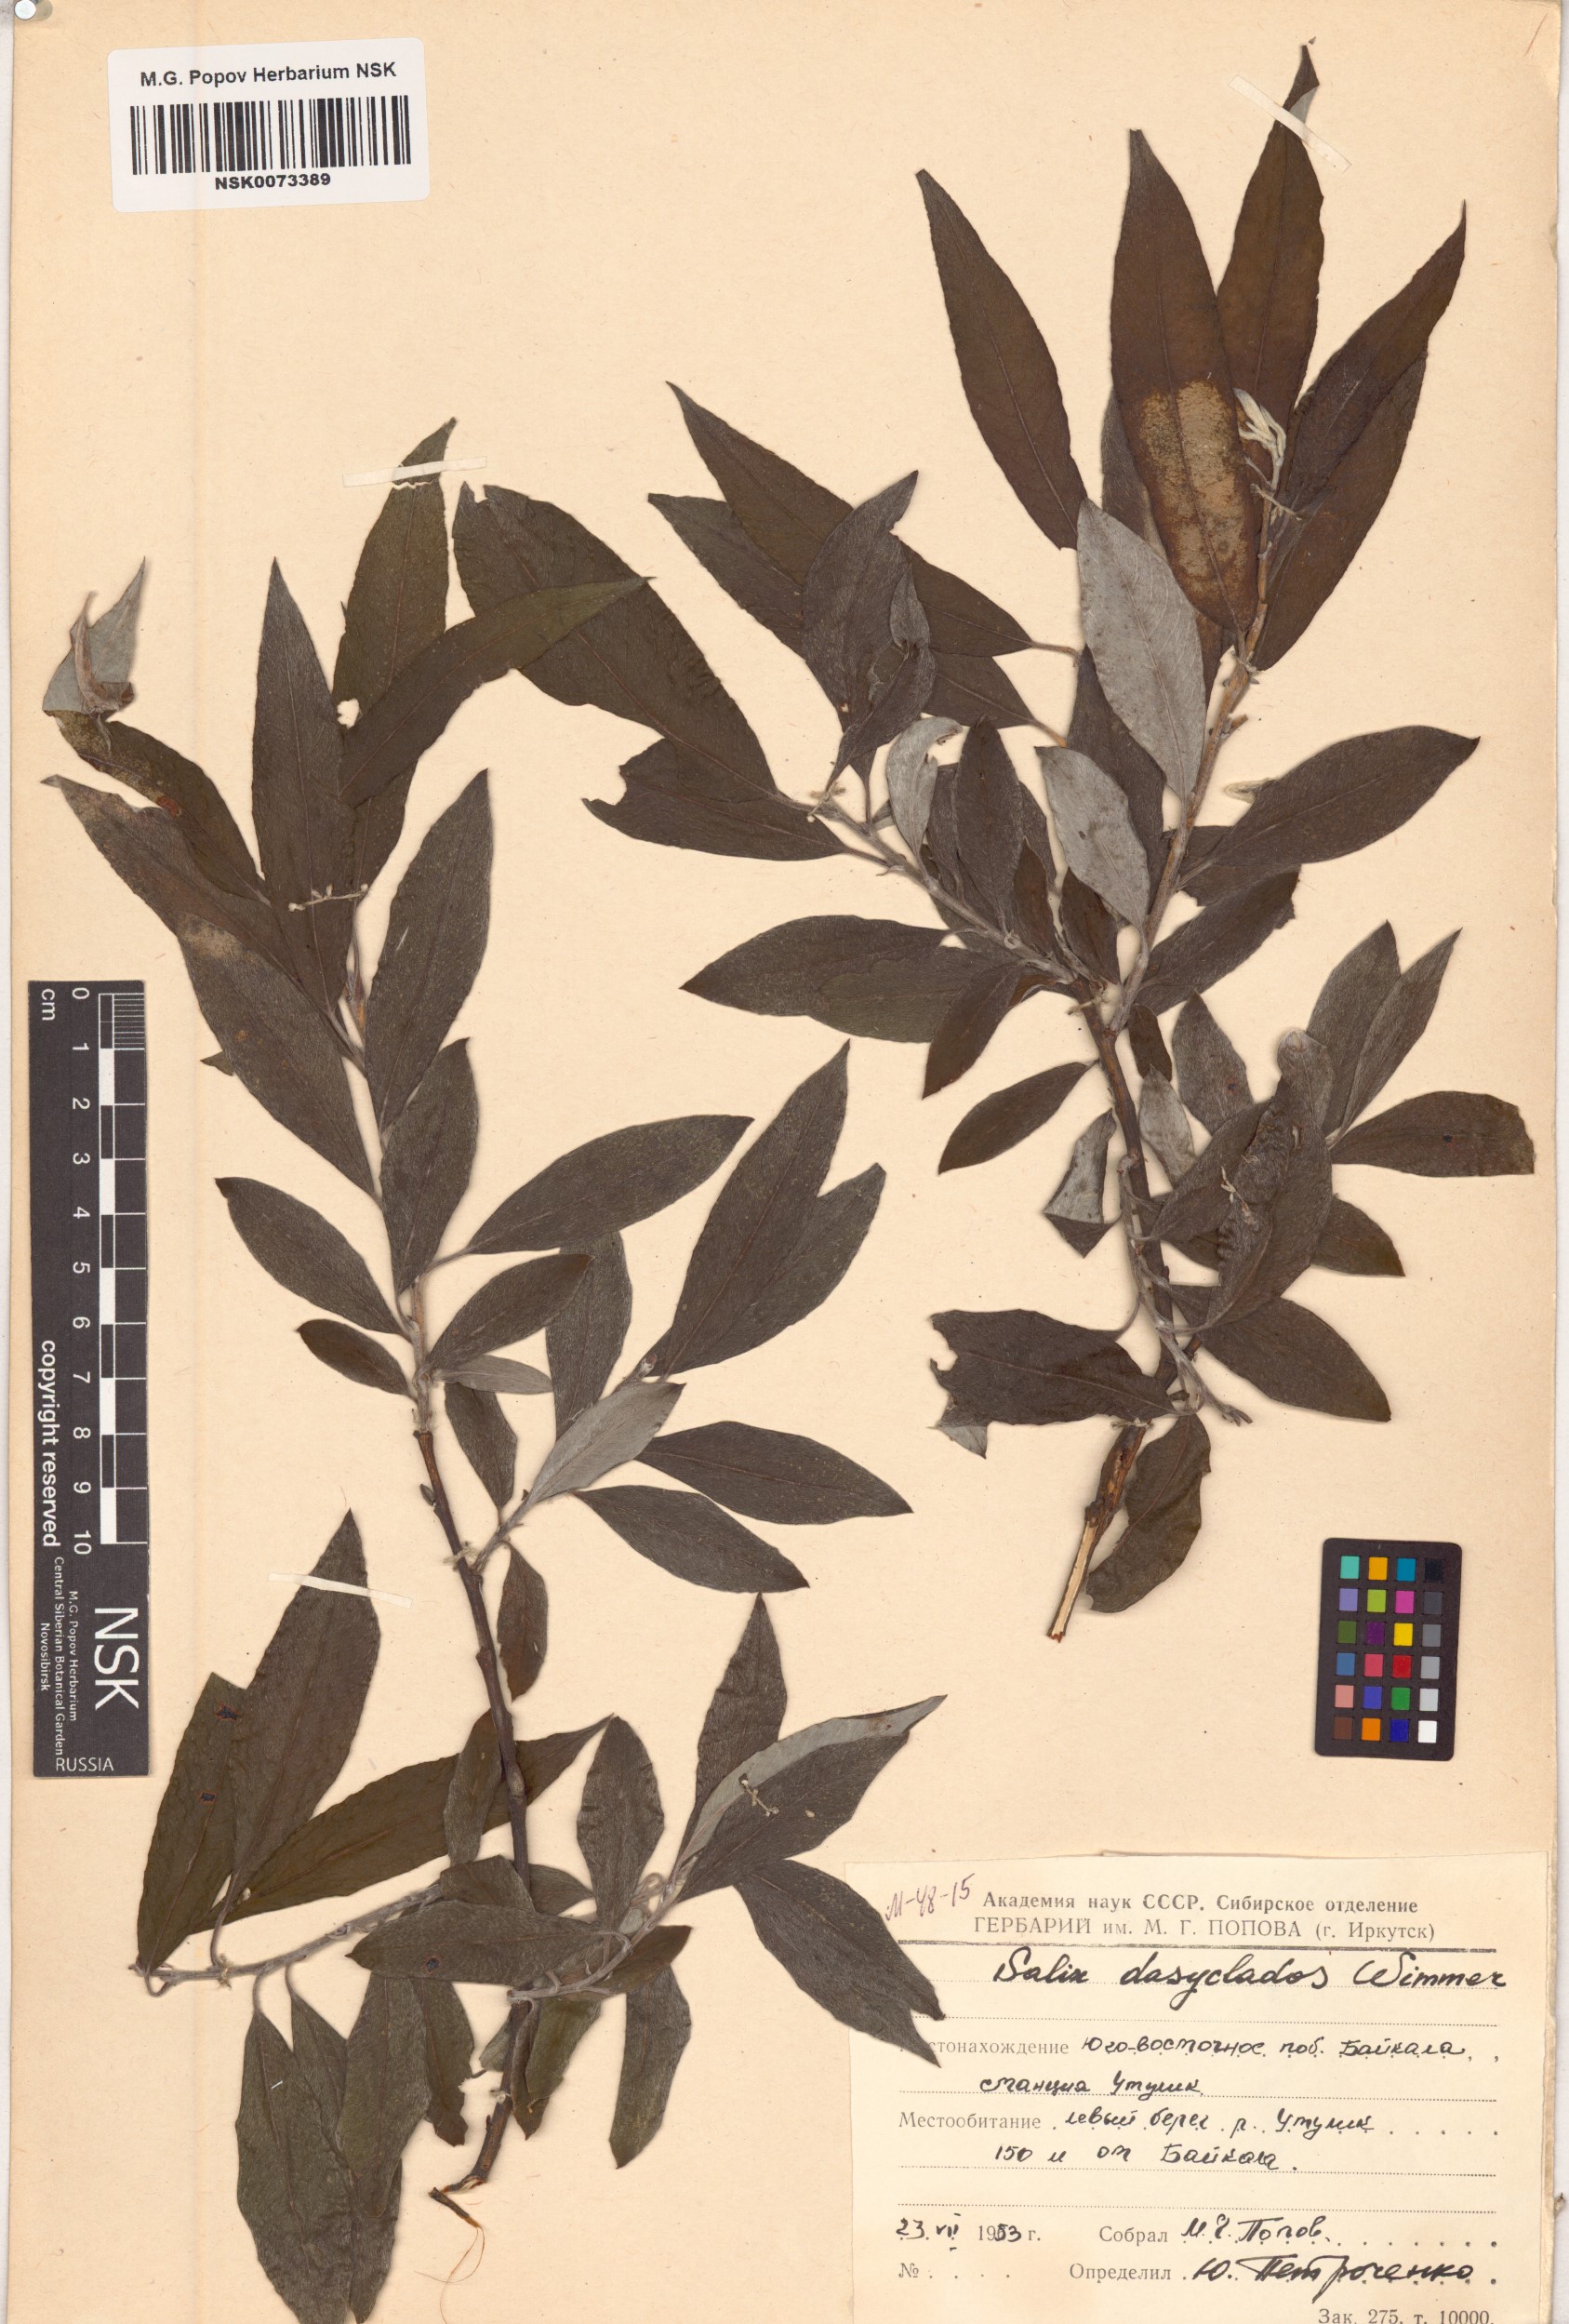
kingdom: Plantae
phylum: Tracheophyta
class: Magnoliopsida
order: Malpighiales
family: Salicaceae
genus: Salix
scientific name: Salix gmelinii
